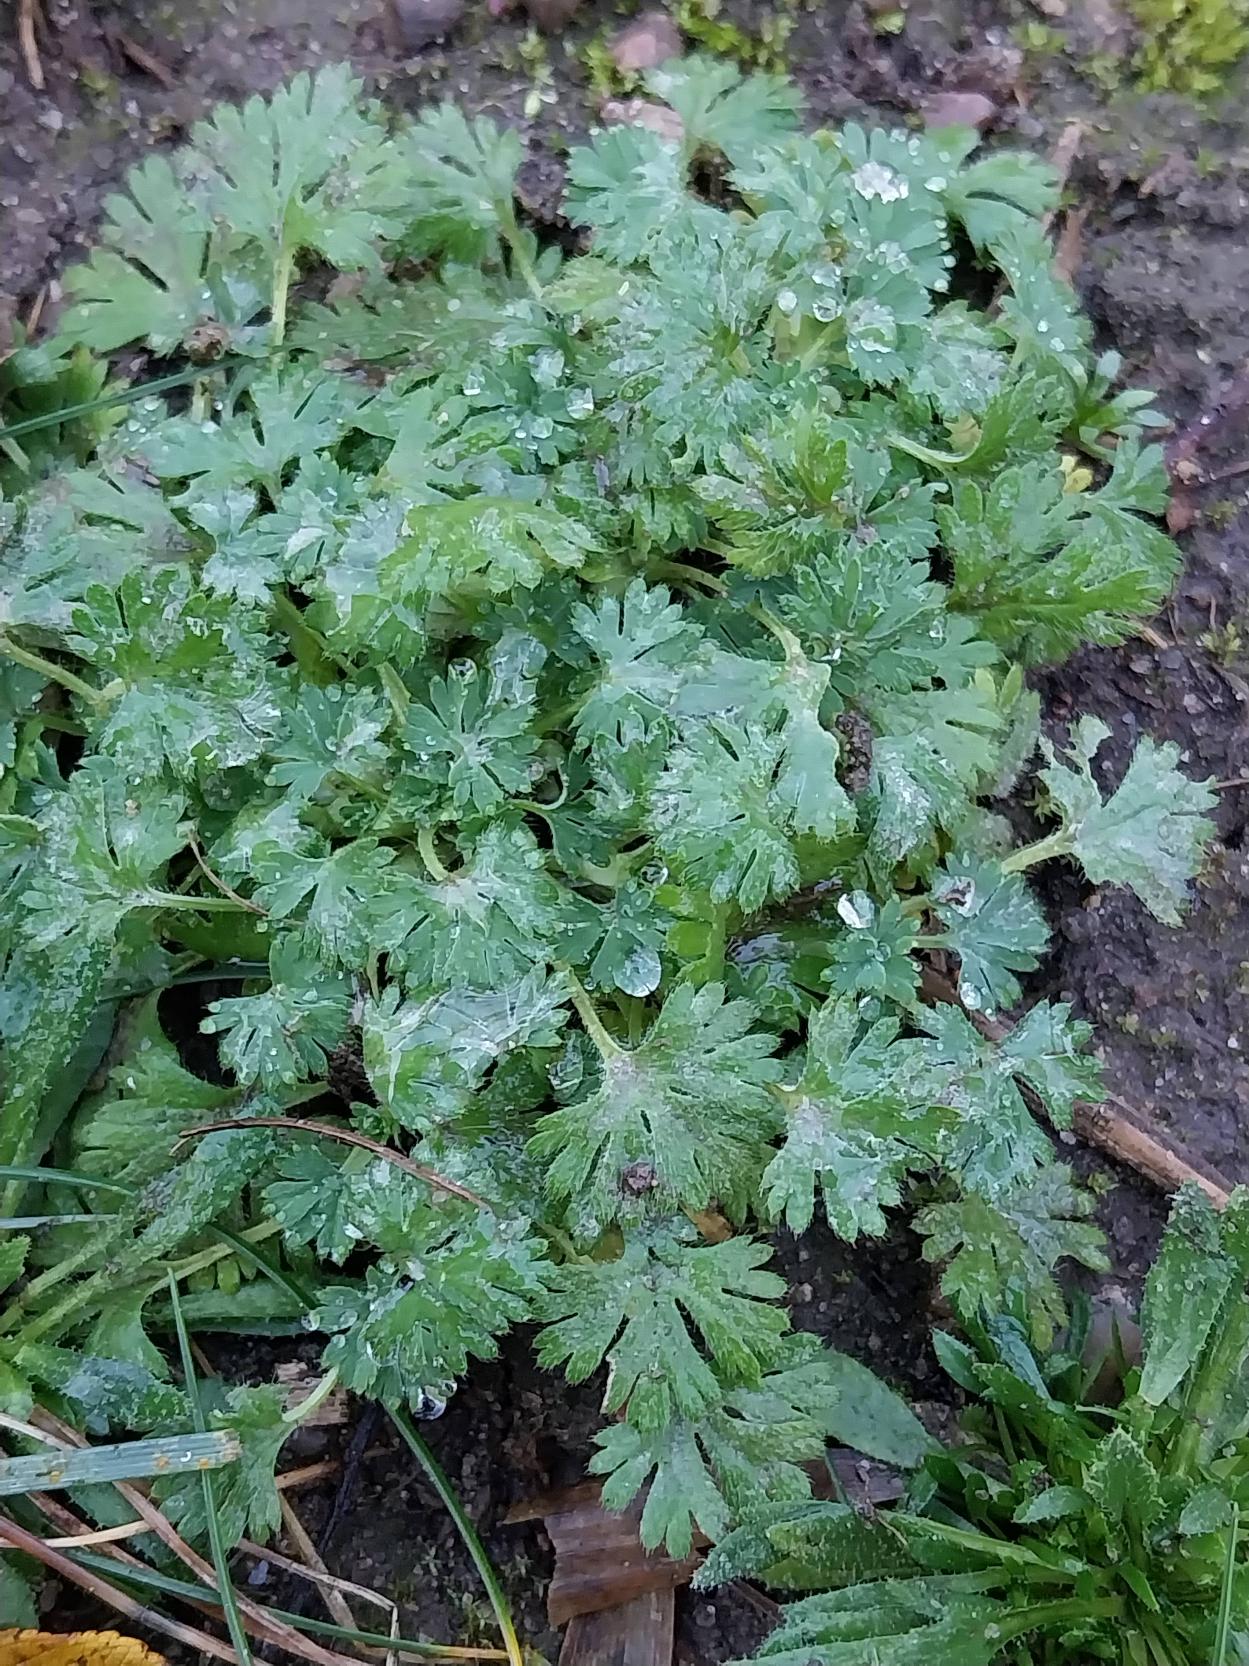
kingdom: Plantae
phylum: Tracheophyta
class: Magnoliopsida
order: Rosales
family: Rosaceae
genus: Aphanes
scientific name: Aphanes arvensis
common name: Dværgløvefod
